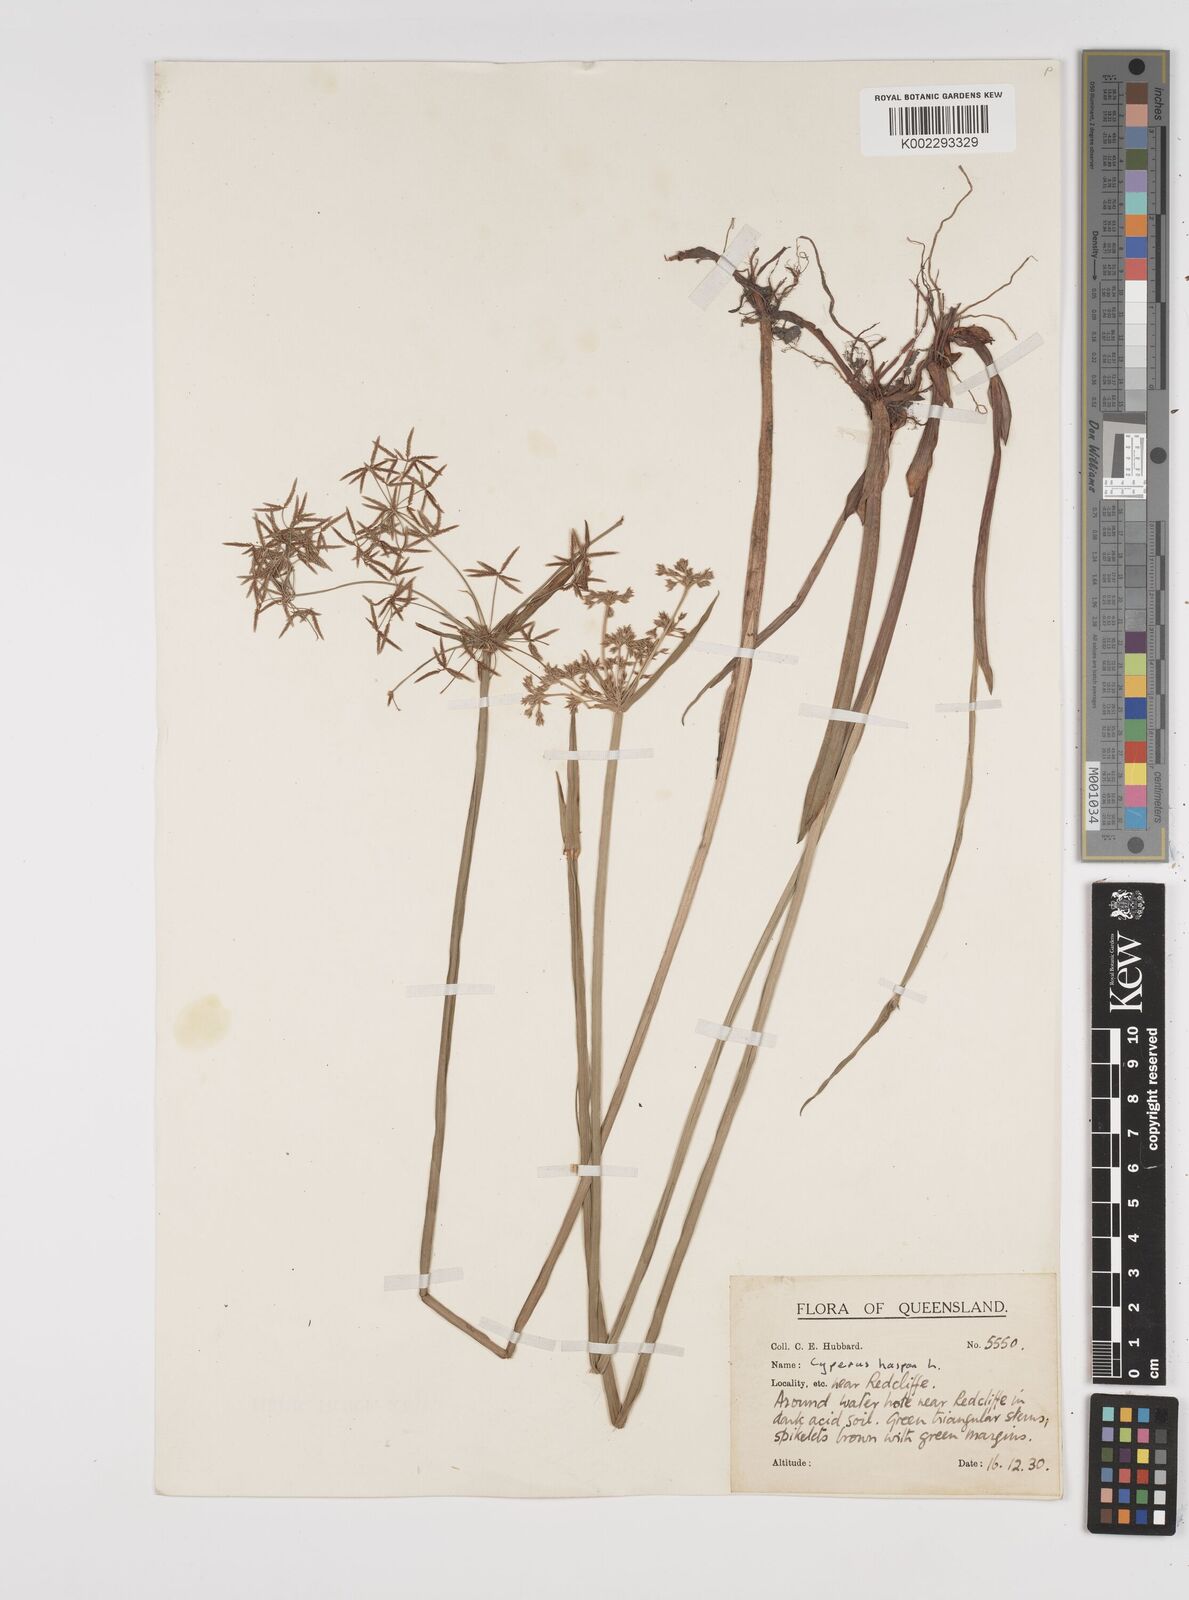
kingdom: Plantae
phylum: Tracheophyta
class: Liliopsida
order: Poales
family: Cyperaceae
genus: Cyperus
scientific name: Cyperus haspan
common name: Haspan flatsedge
